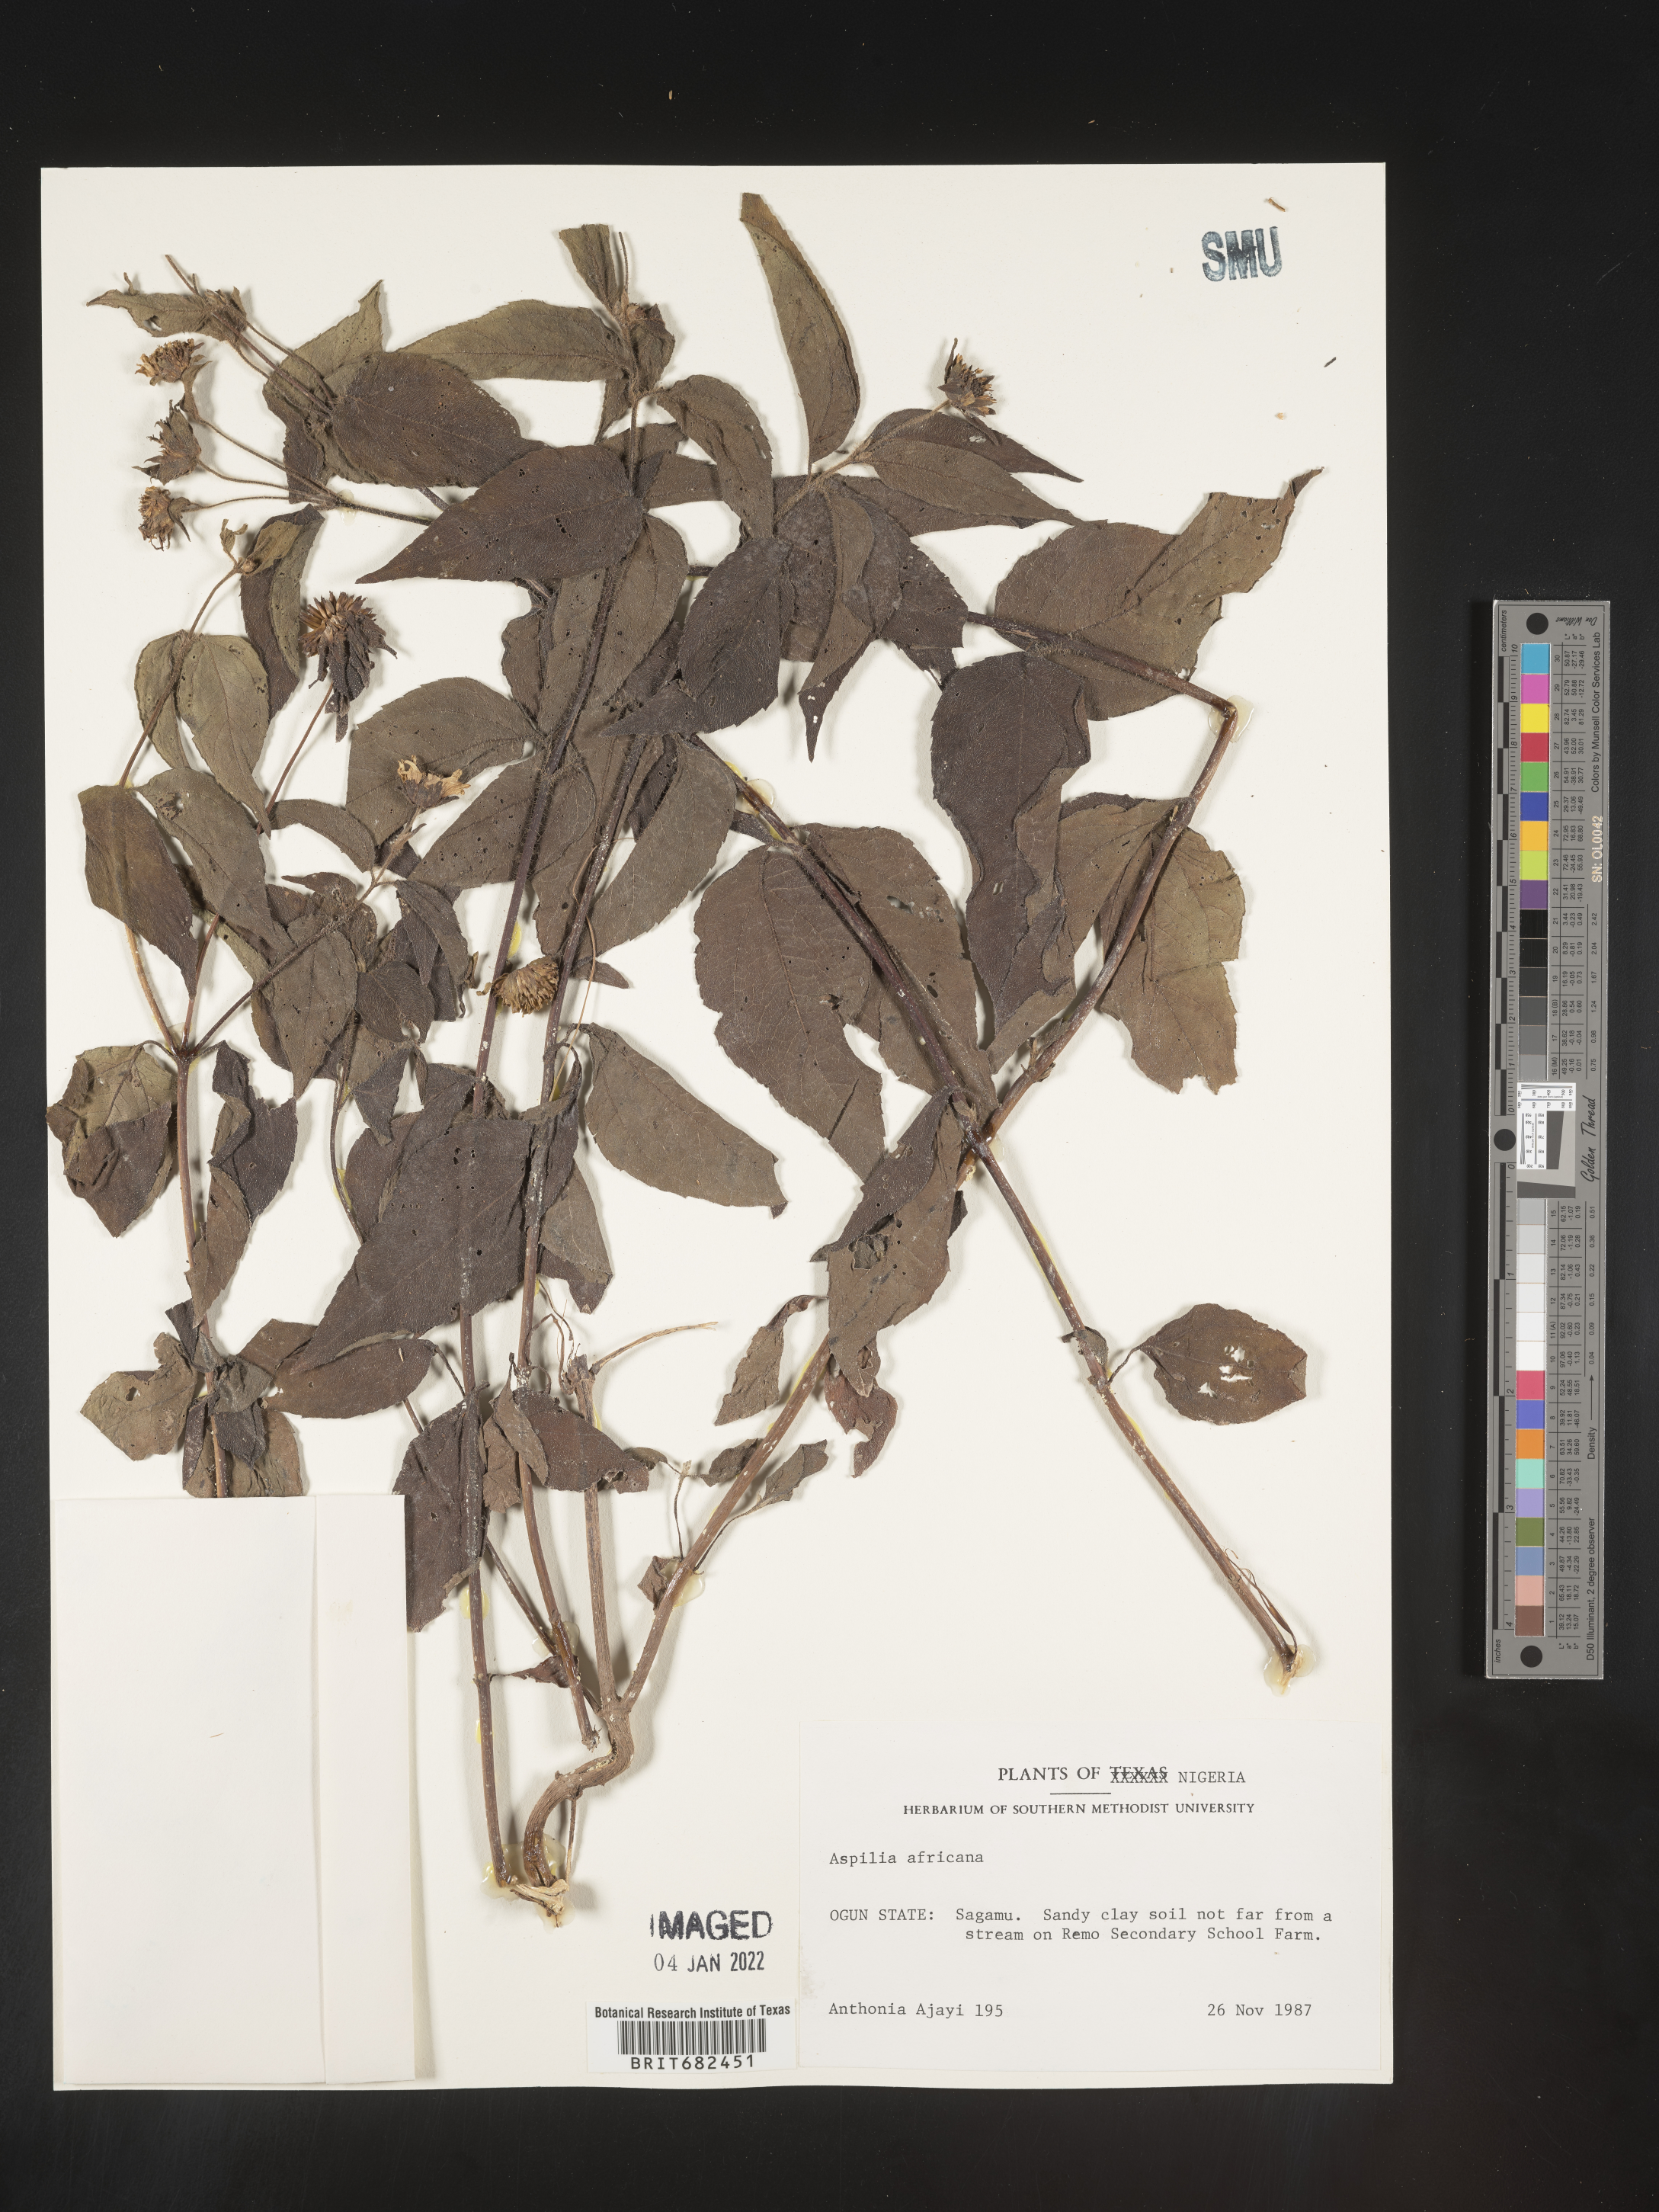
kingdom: Plantae
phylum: Tracheophyta
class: Magnoliopsida
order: Asterales
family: Asteraceae
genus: Aspilia
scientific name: Aspilia
